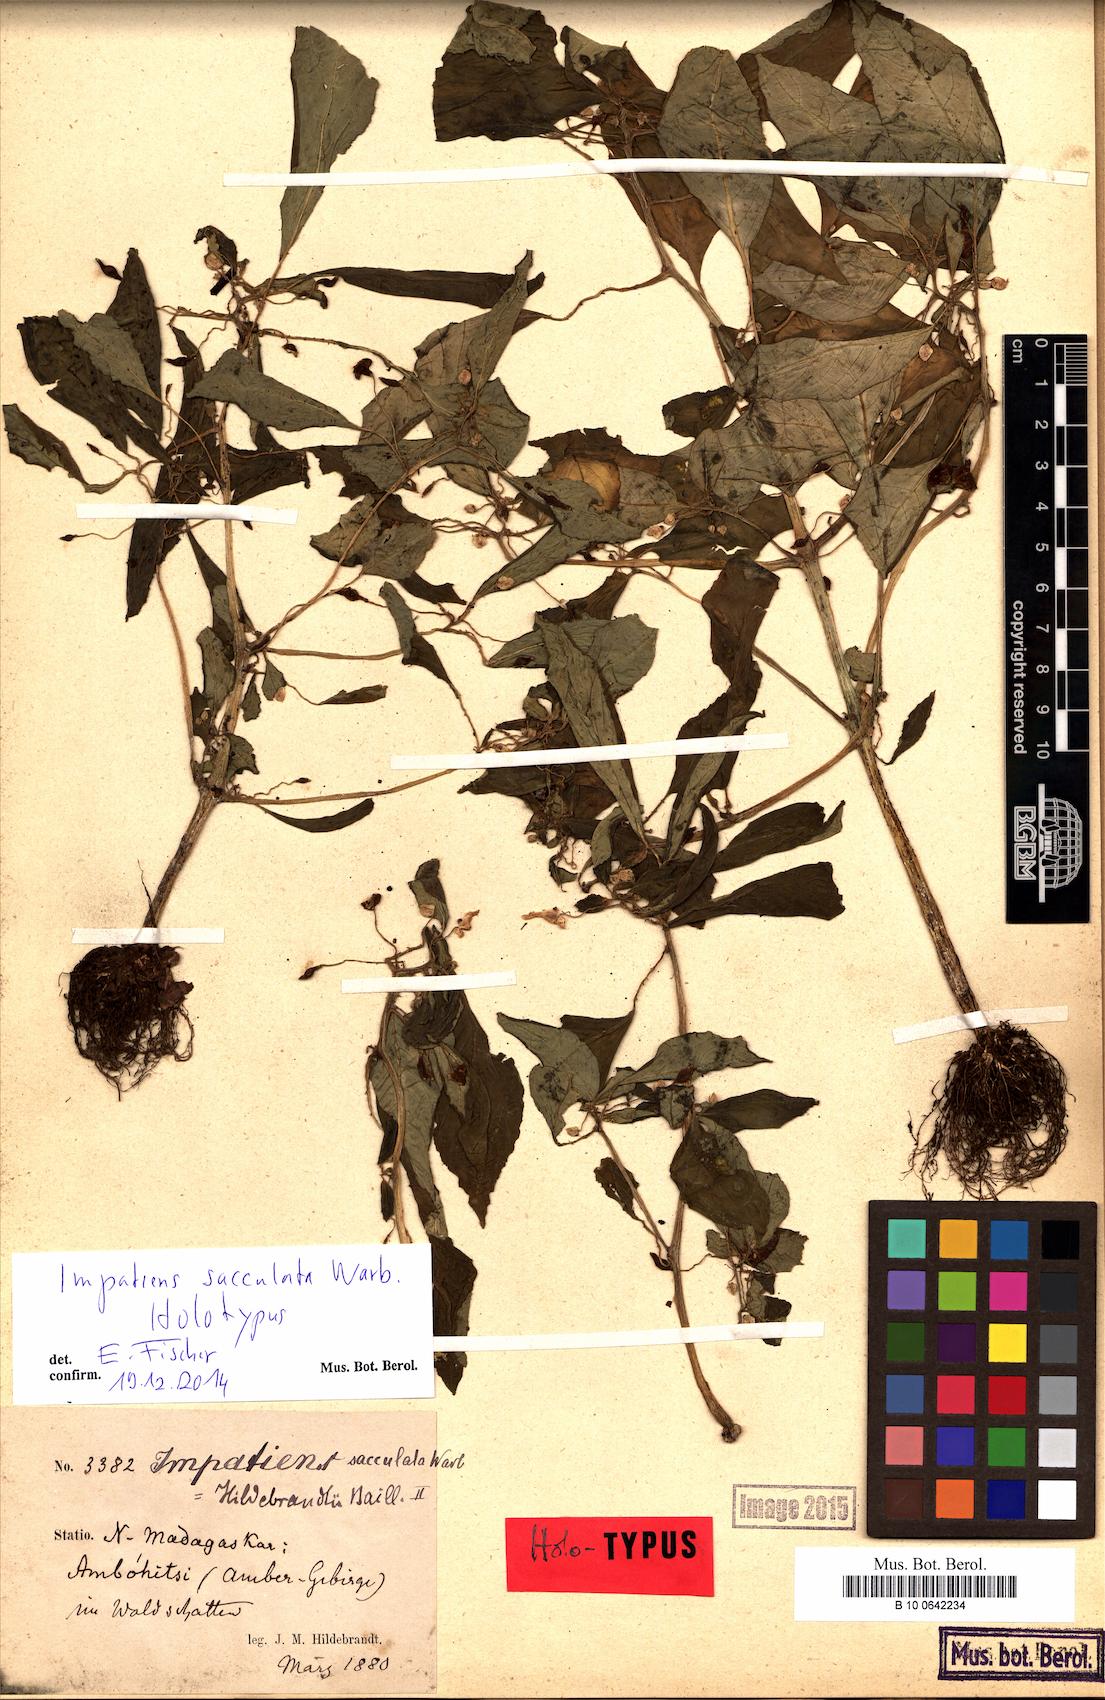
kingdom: Plantae
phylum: Tracheophyta
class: Magnoliopsida
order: Ericales
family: Balsaminaceae
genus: Impatiens
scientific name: Impatiens sacculata
